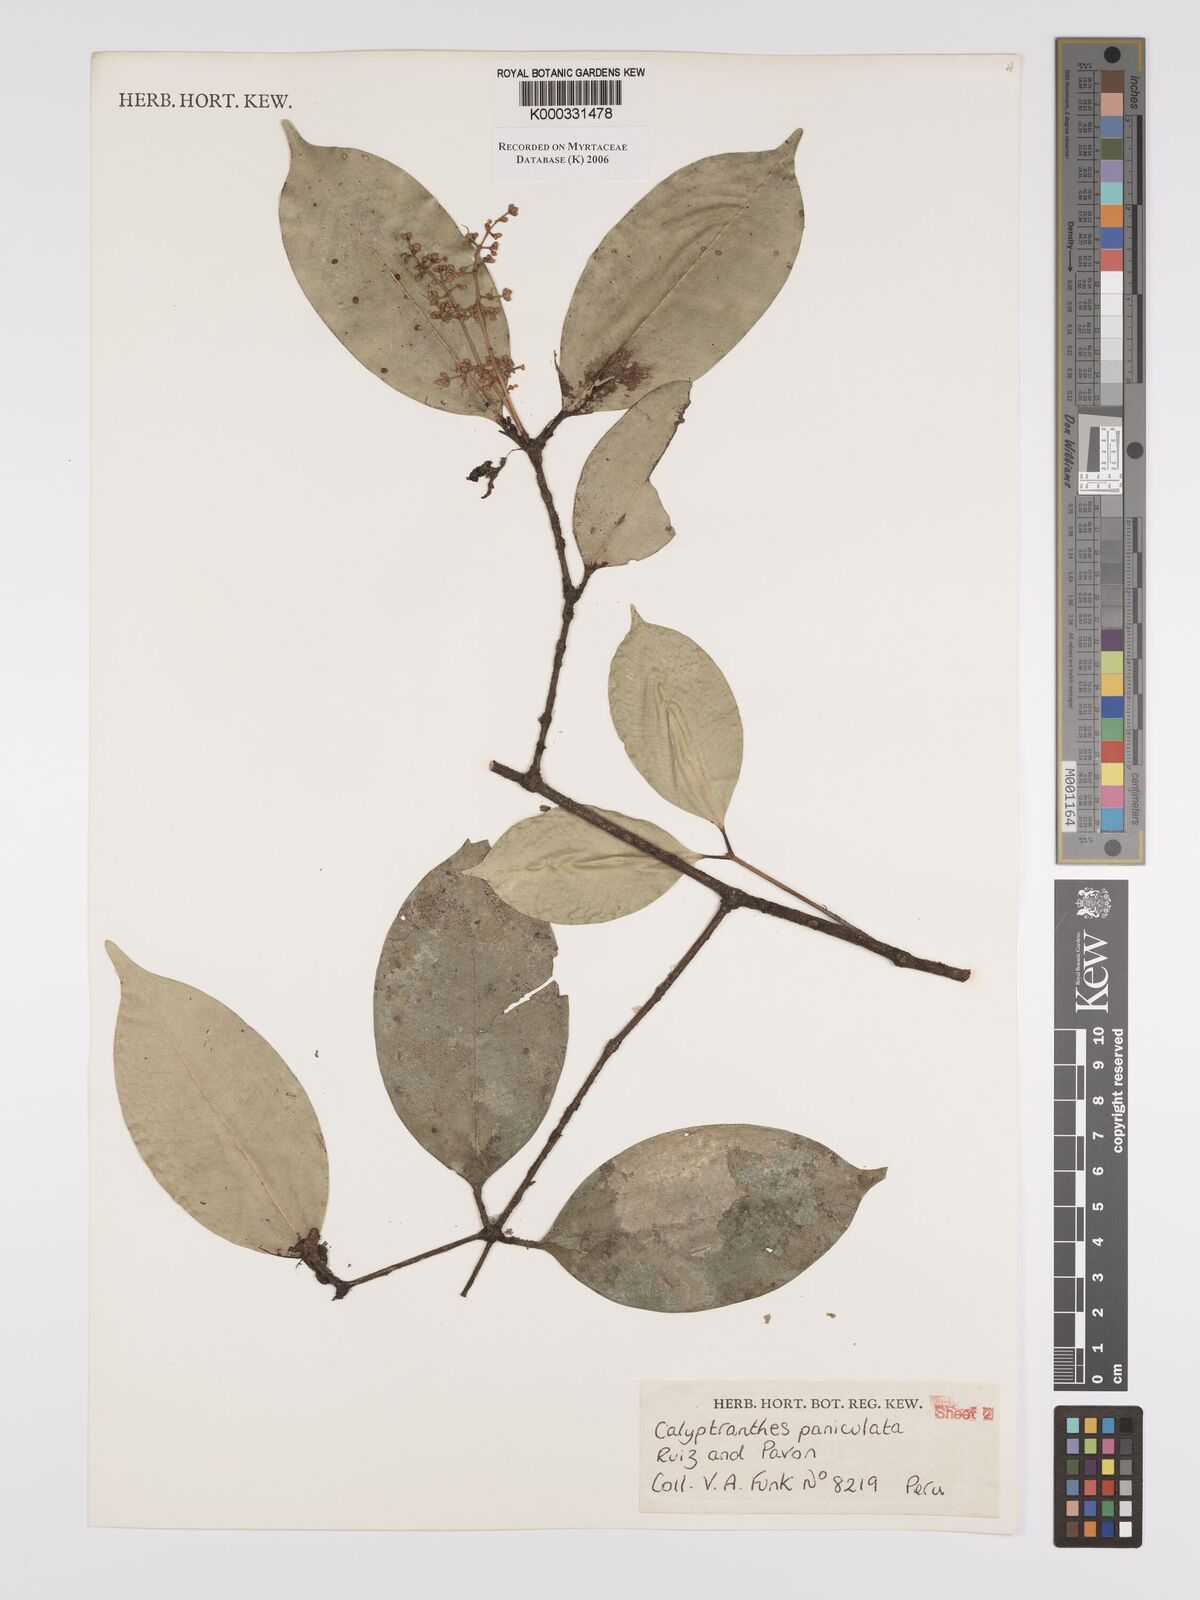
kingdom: Plantae
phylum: Tracheophyta
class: Magnoliopsida
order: Myrtales
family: Myrtaceae
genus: Calyptranthes
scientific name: Calyptranthes
